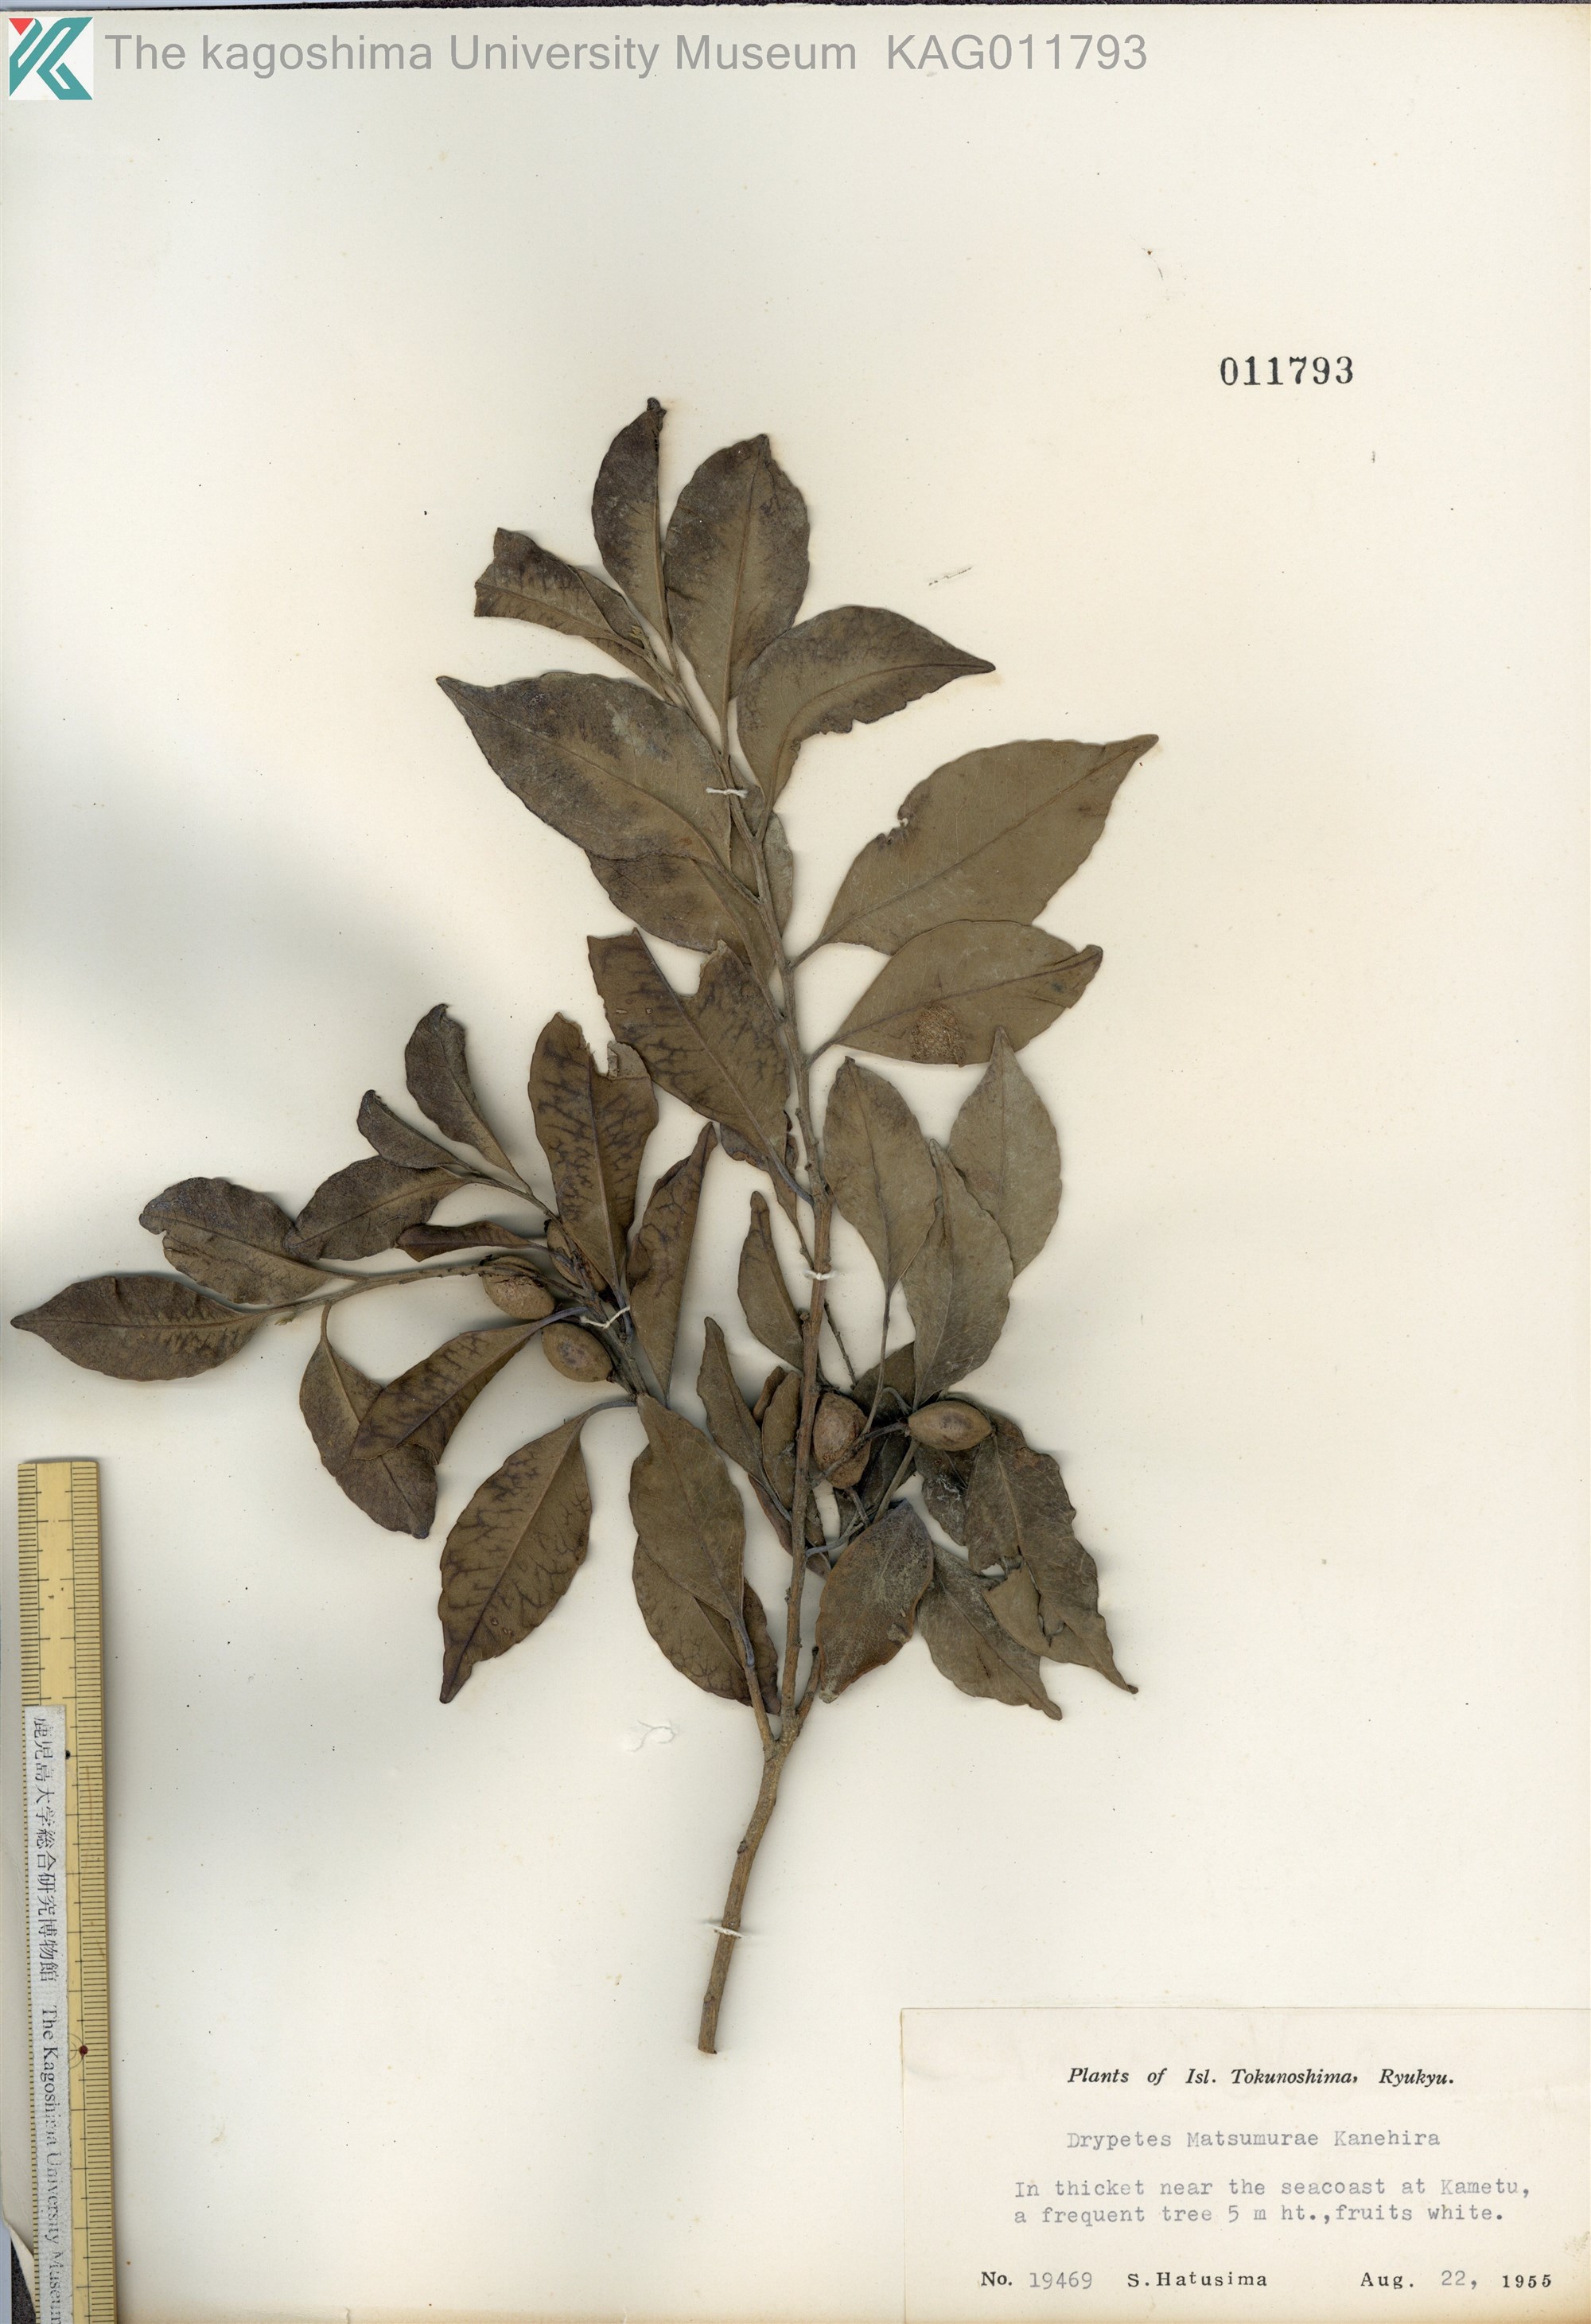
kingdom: Plantae
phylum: Tracheophyta
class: Magnoliopsida
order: Malpighiales
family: Putranjivaceae
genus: Putranjiva
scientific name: Putranjiva matsumurae
